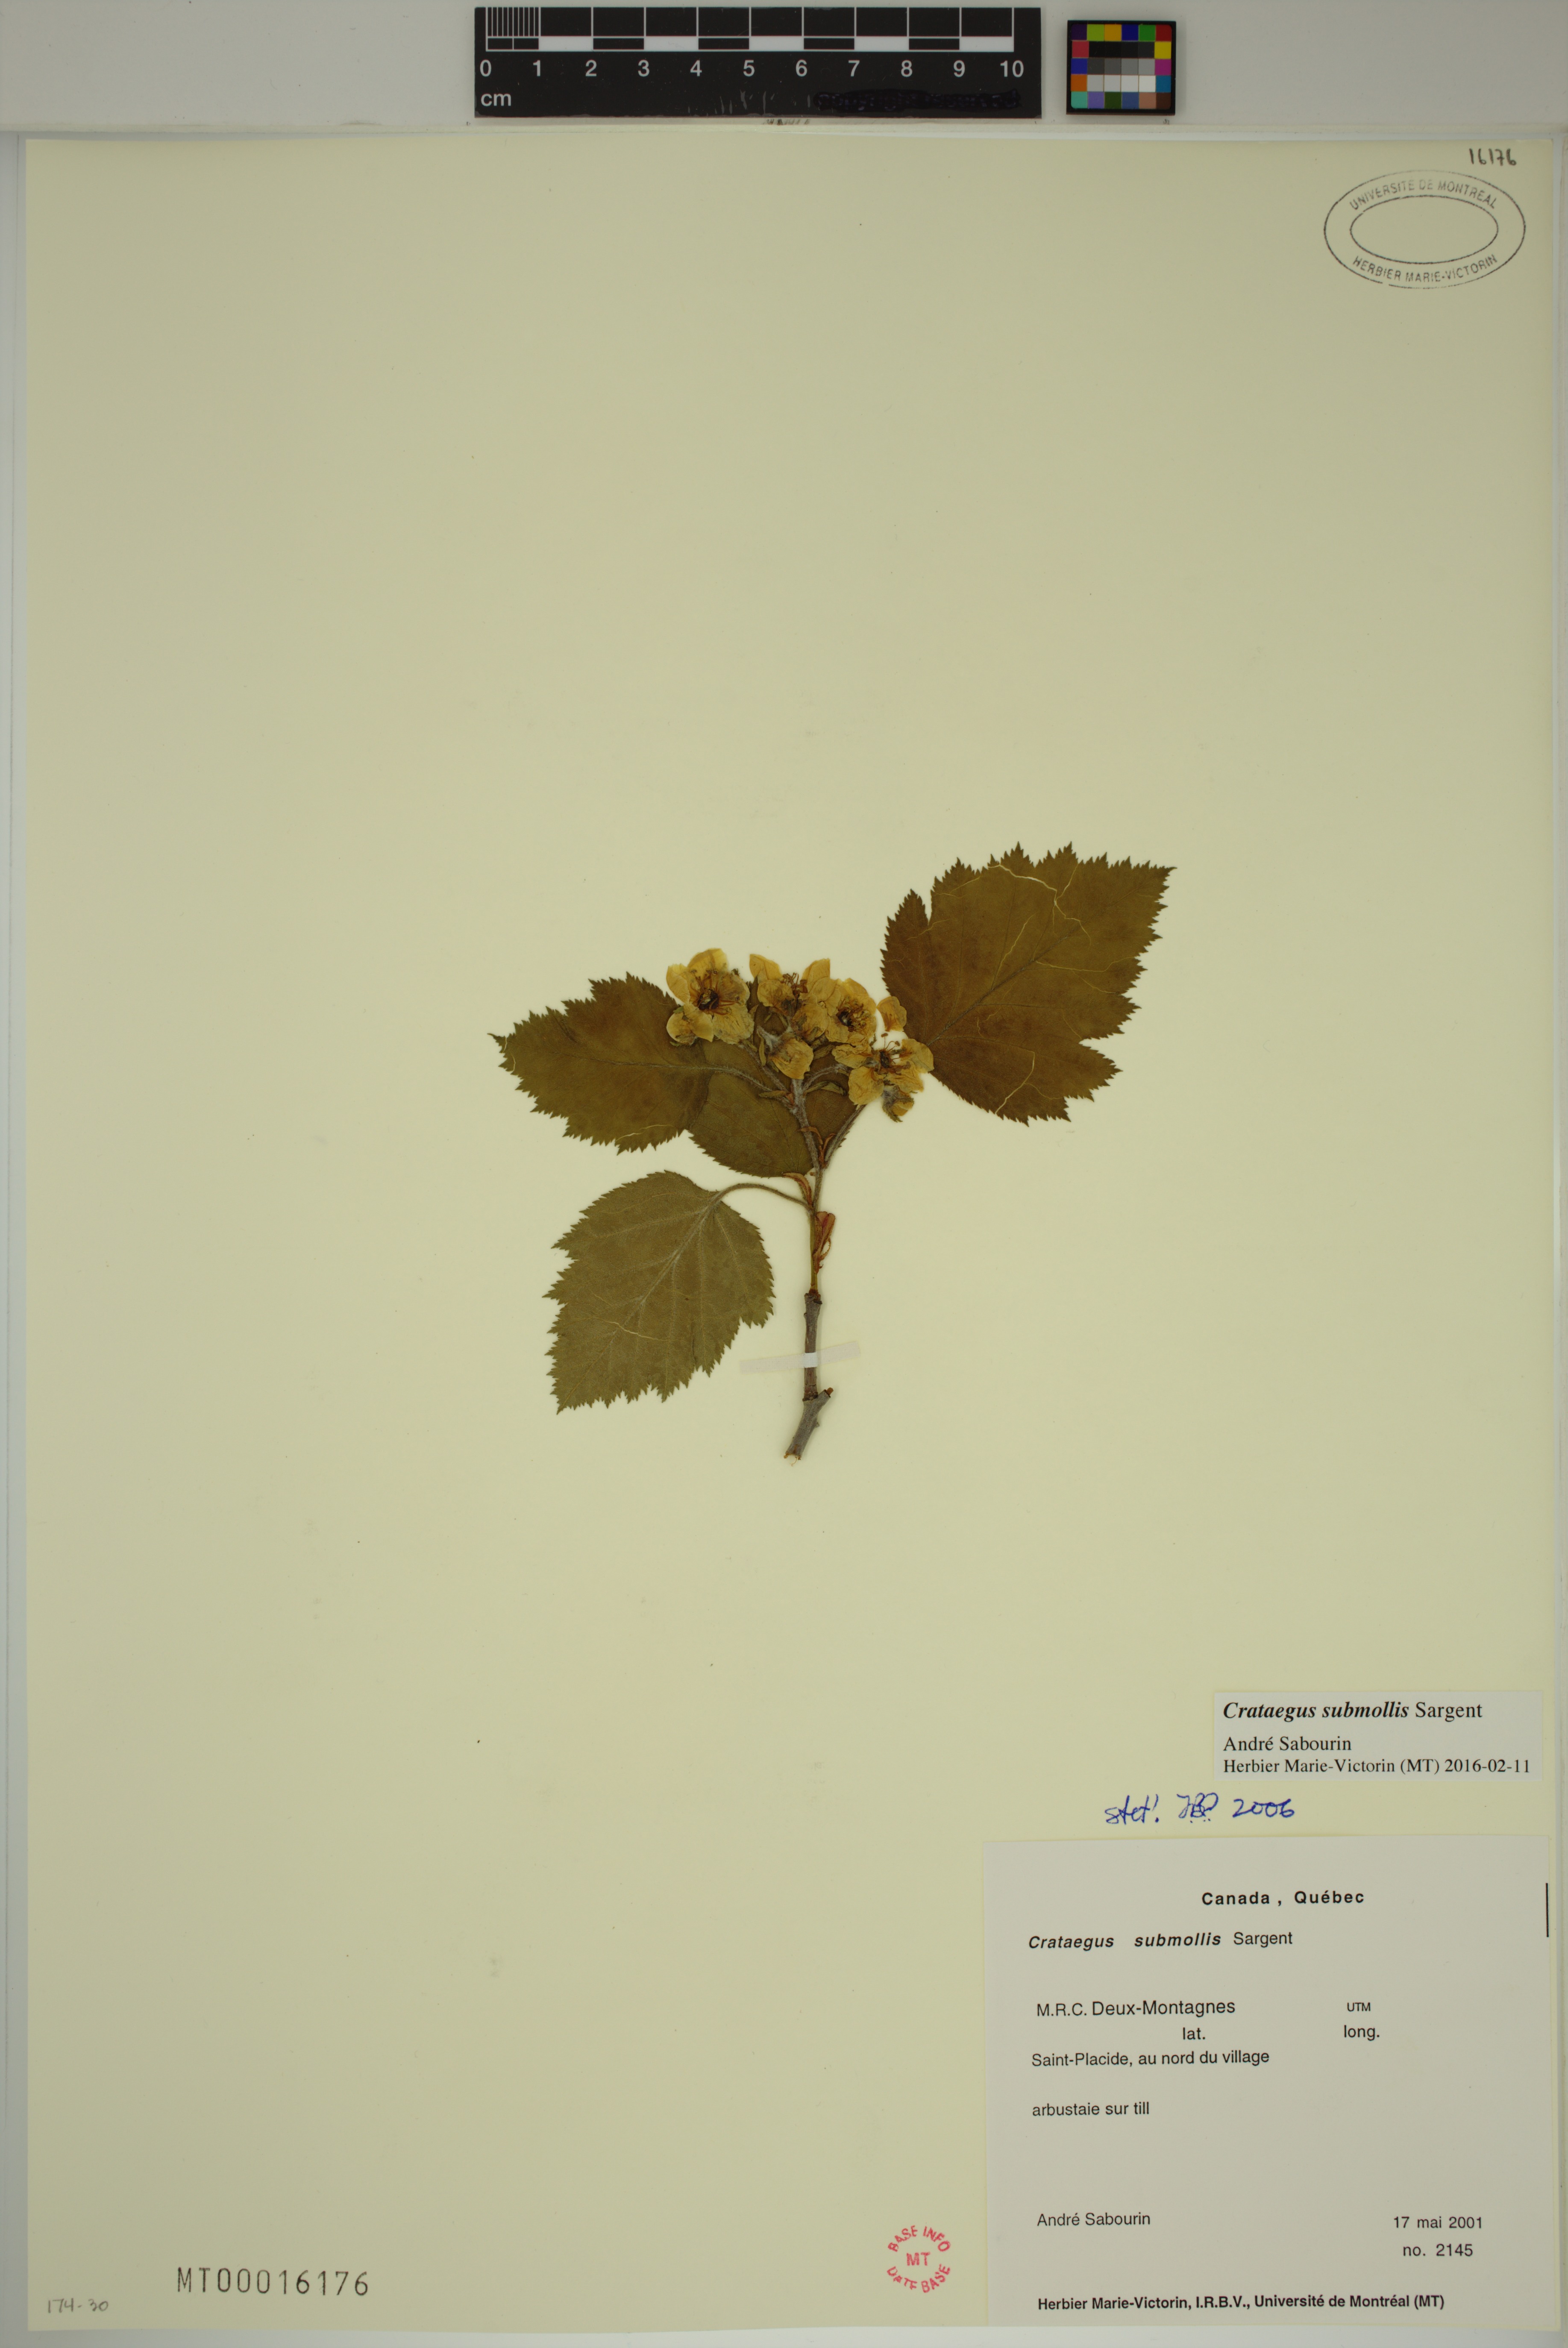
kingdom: Plantae
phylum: Tracheophyta
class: Magnoliopsida
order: Rosales
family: Rosaceae
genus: Crataegus
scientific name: Crataegus submollis
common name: Hairy cockspurthorn
